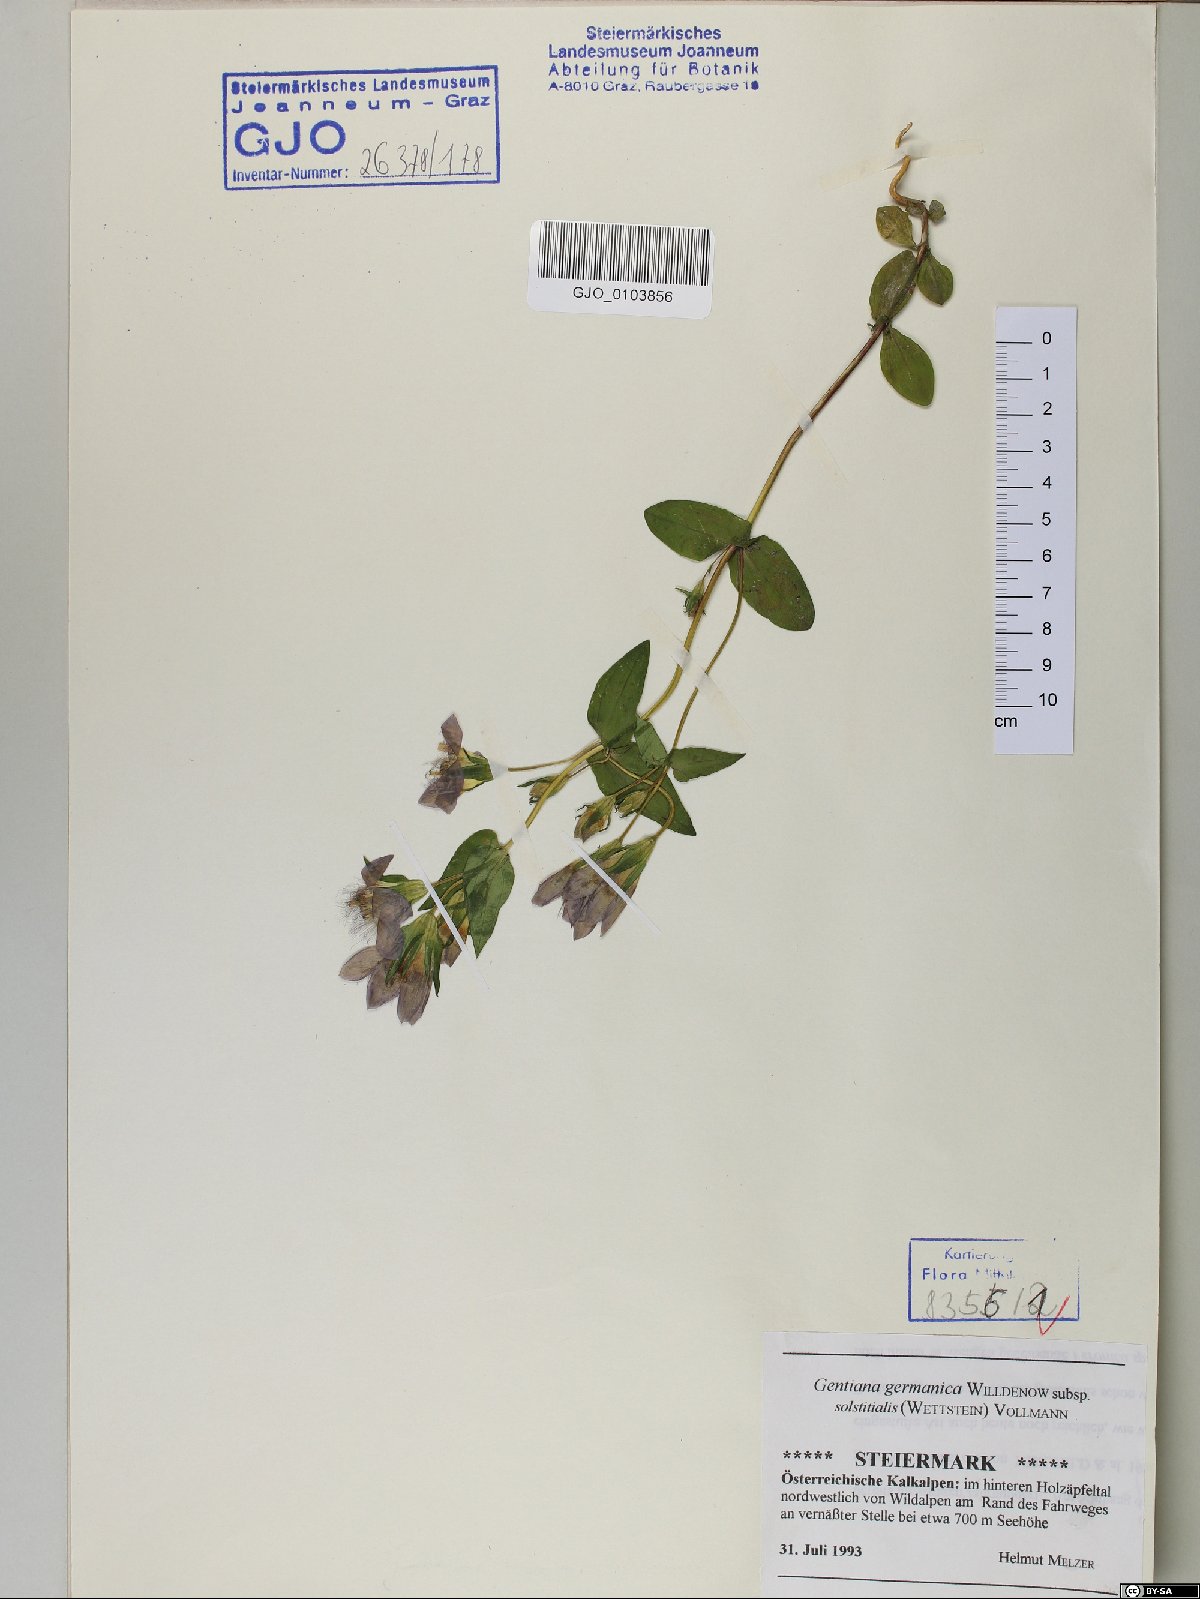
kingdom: Plantae
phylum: Tracheophyta
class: Magnoliopsida
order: Gentianales
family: Gentianaceae
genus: Gentianella
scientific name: Gentianella germanica
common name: Chiltern-gentian
